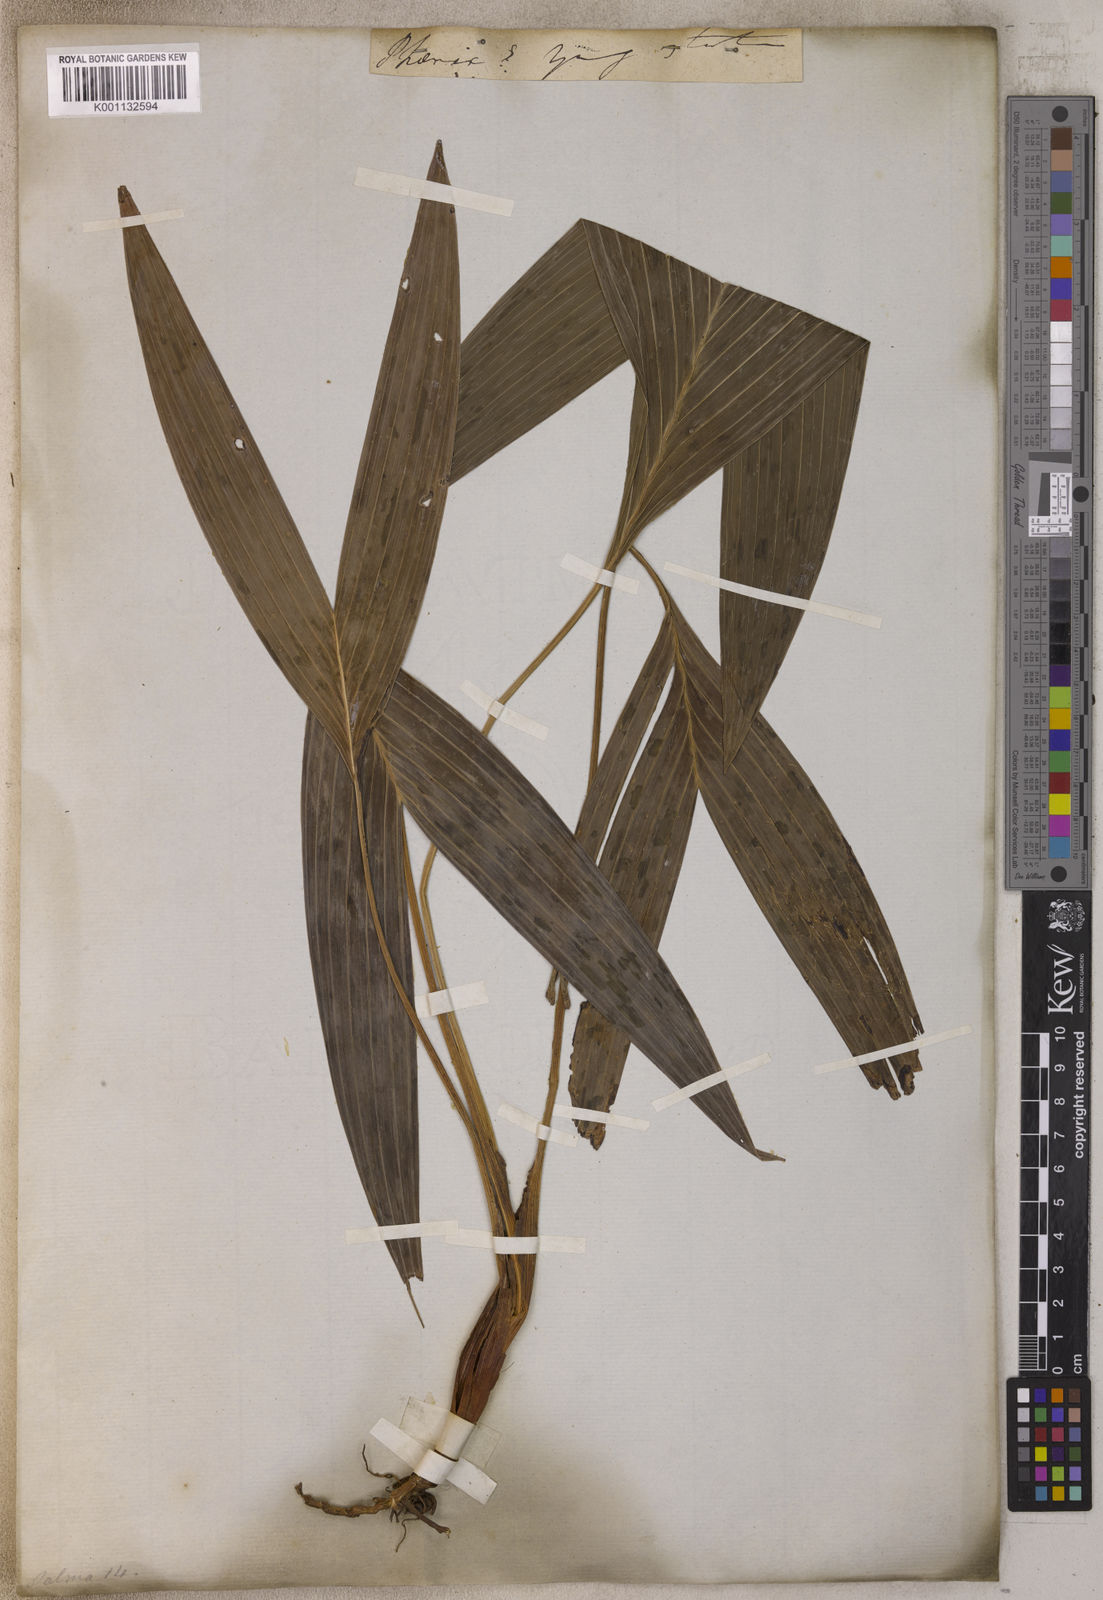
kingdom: Plantae
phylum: Tracheophyta
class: Liliopsida
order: Arecales
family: Arecaceae
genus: Phoenix
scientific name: Phoenix
